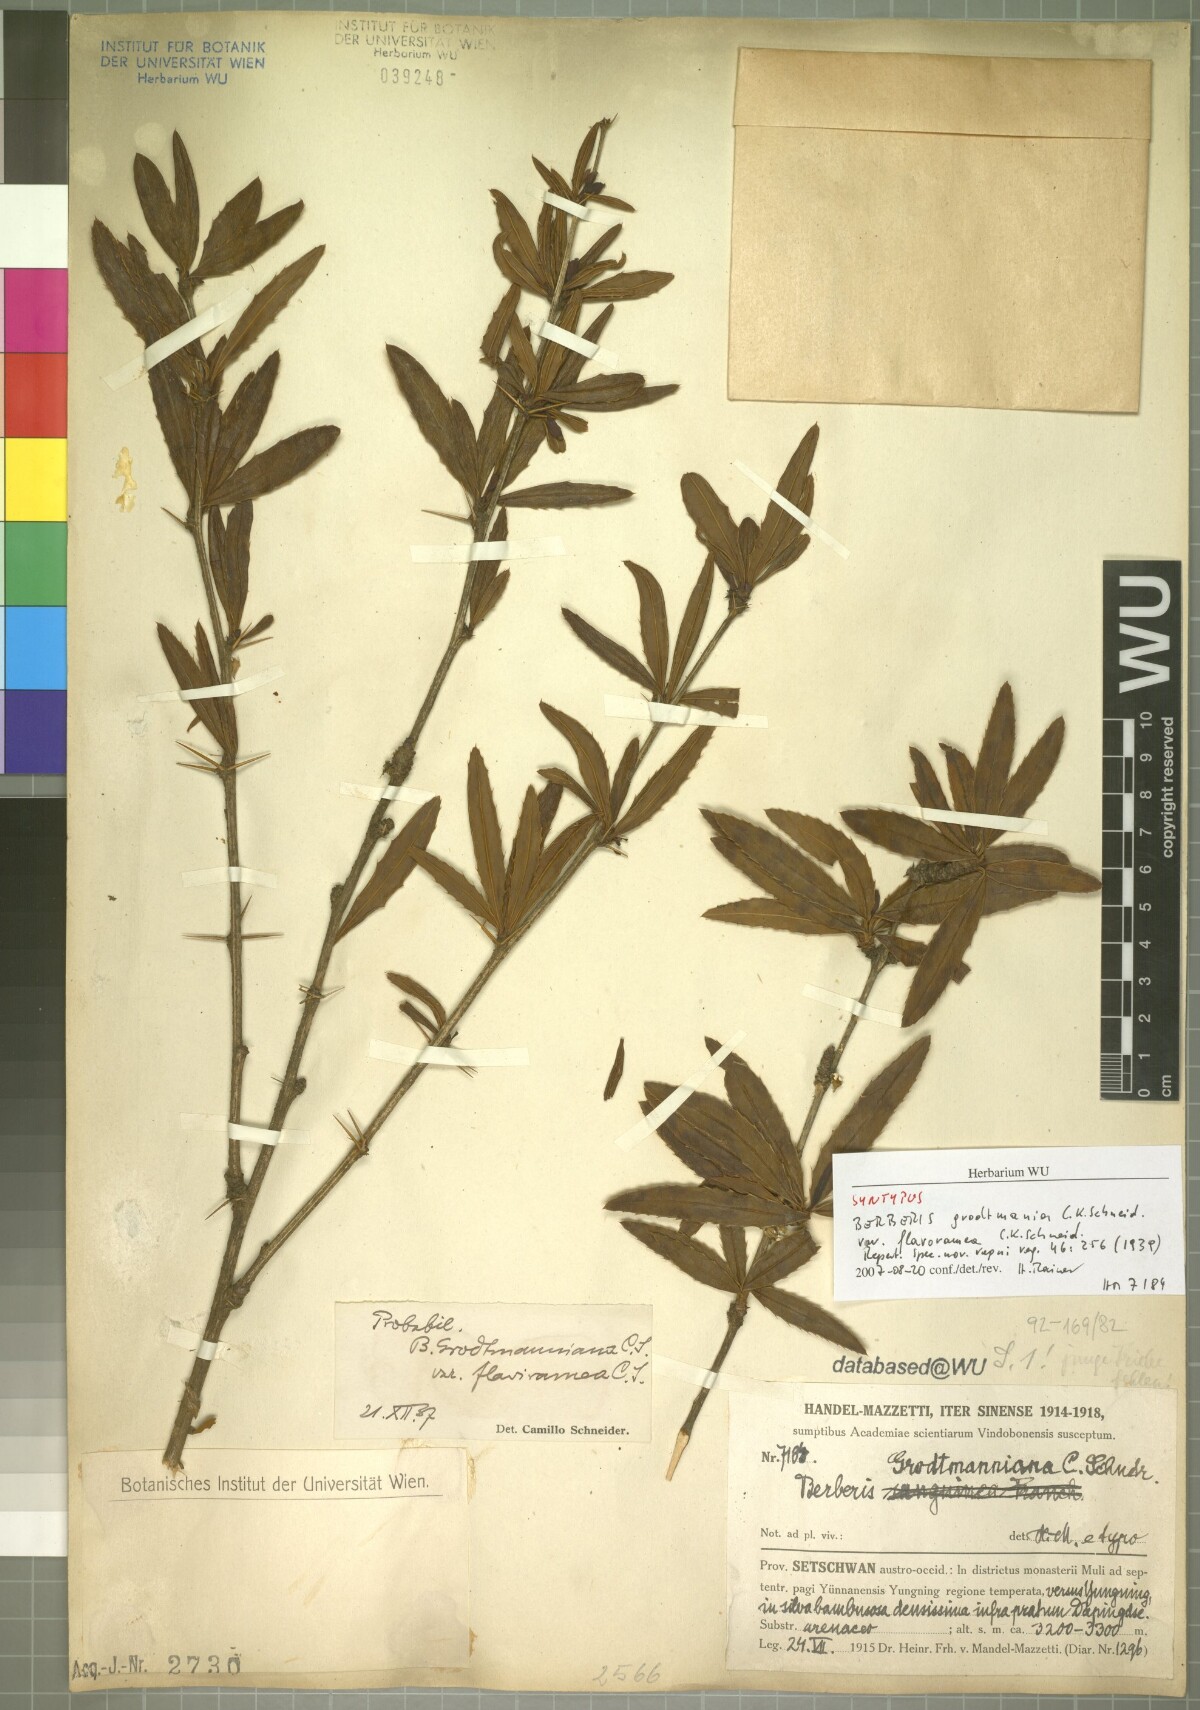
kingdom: Plantae
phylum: Tracheophyta
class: Magnoliopsida
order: Ranunculales
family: Berberidaceae
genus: Berberis
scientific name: Berberis grodtmanniana
